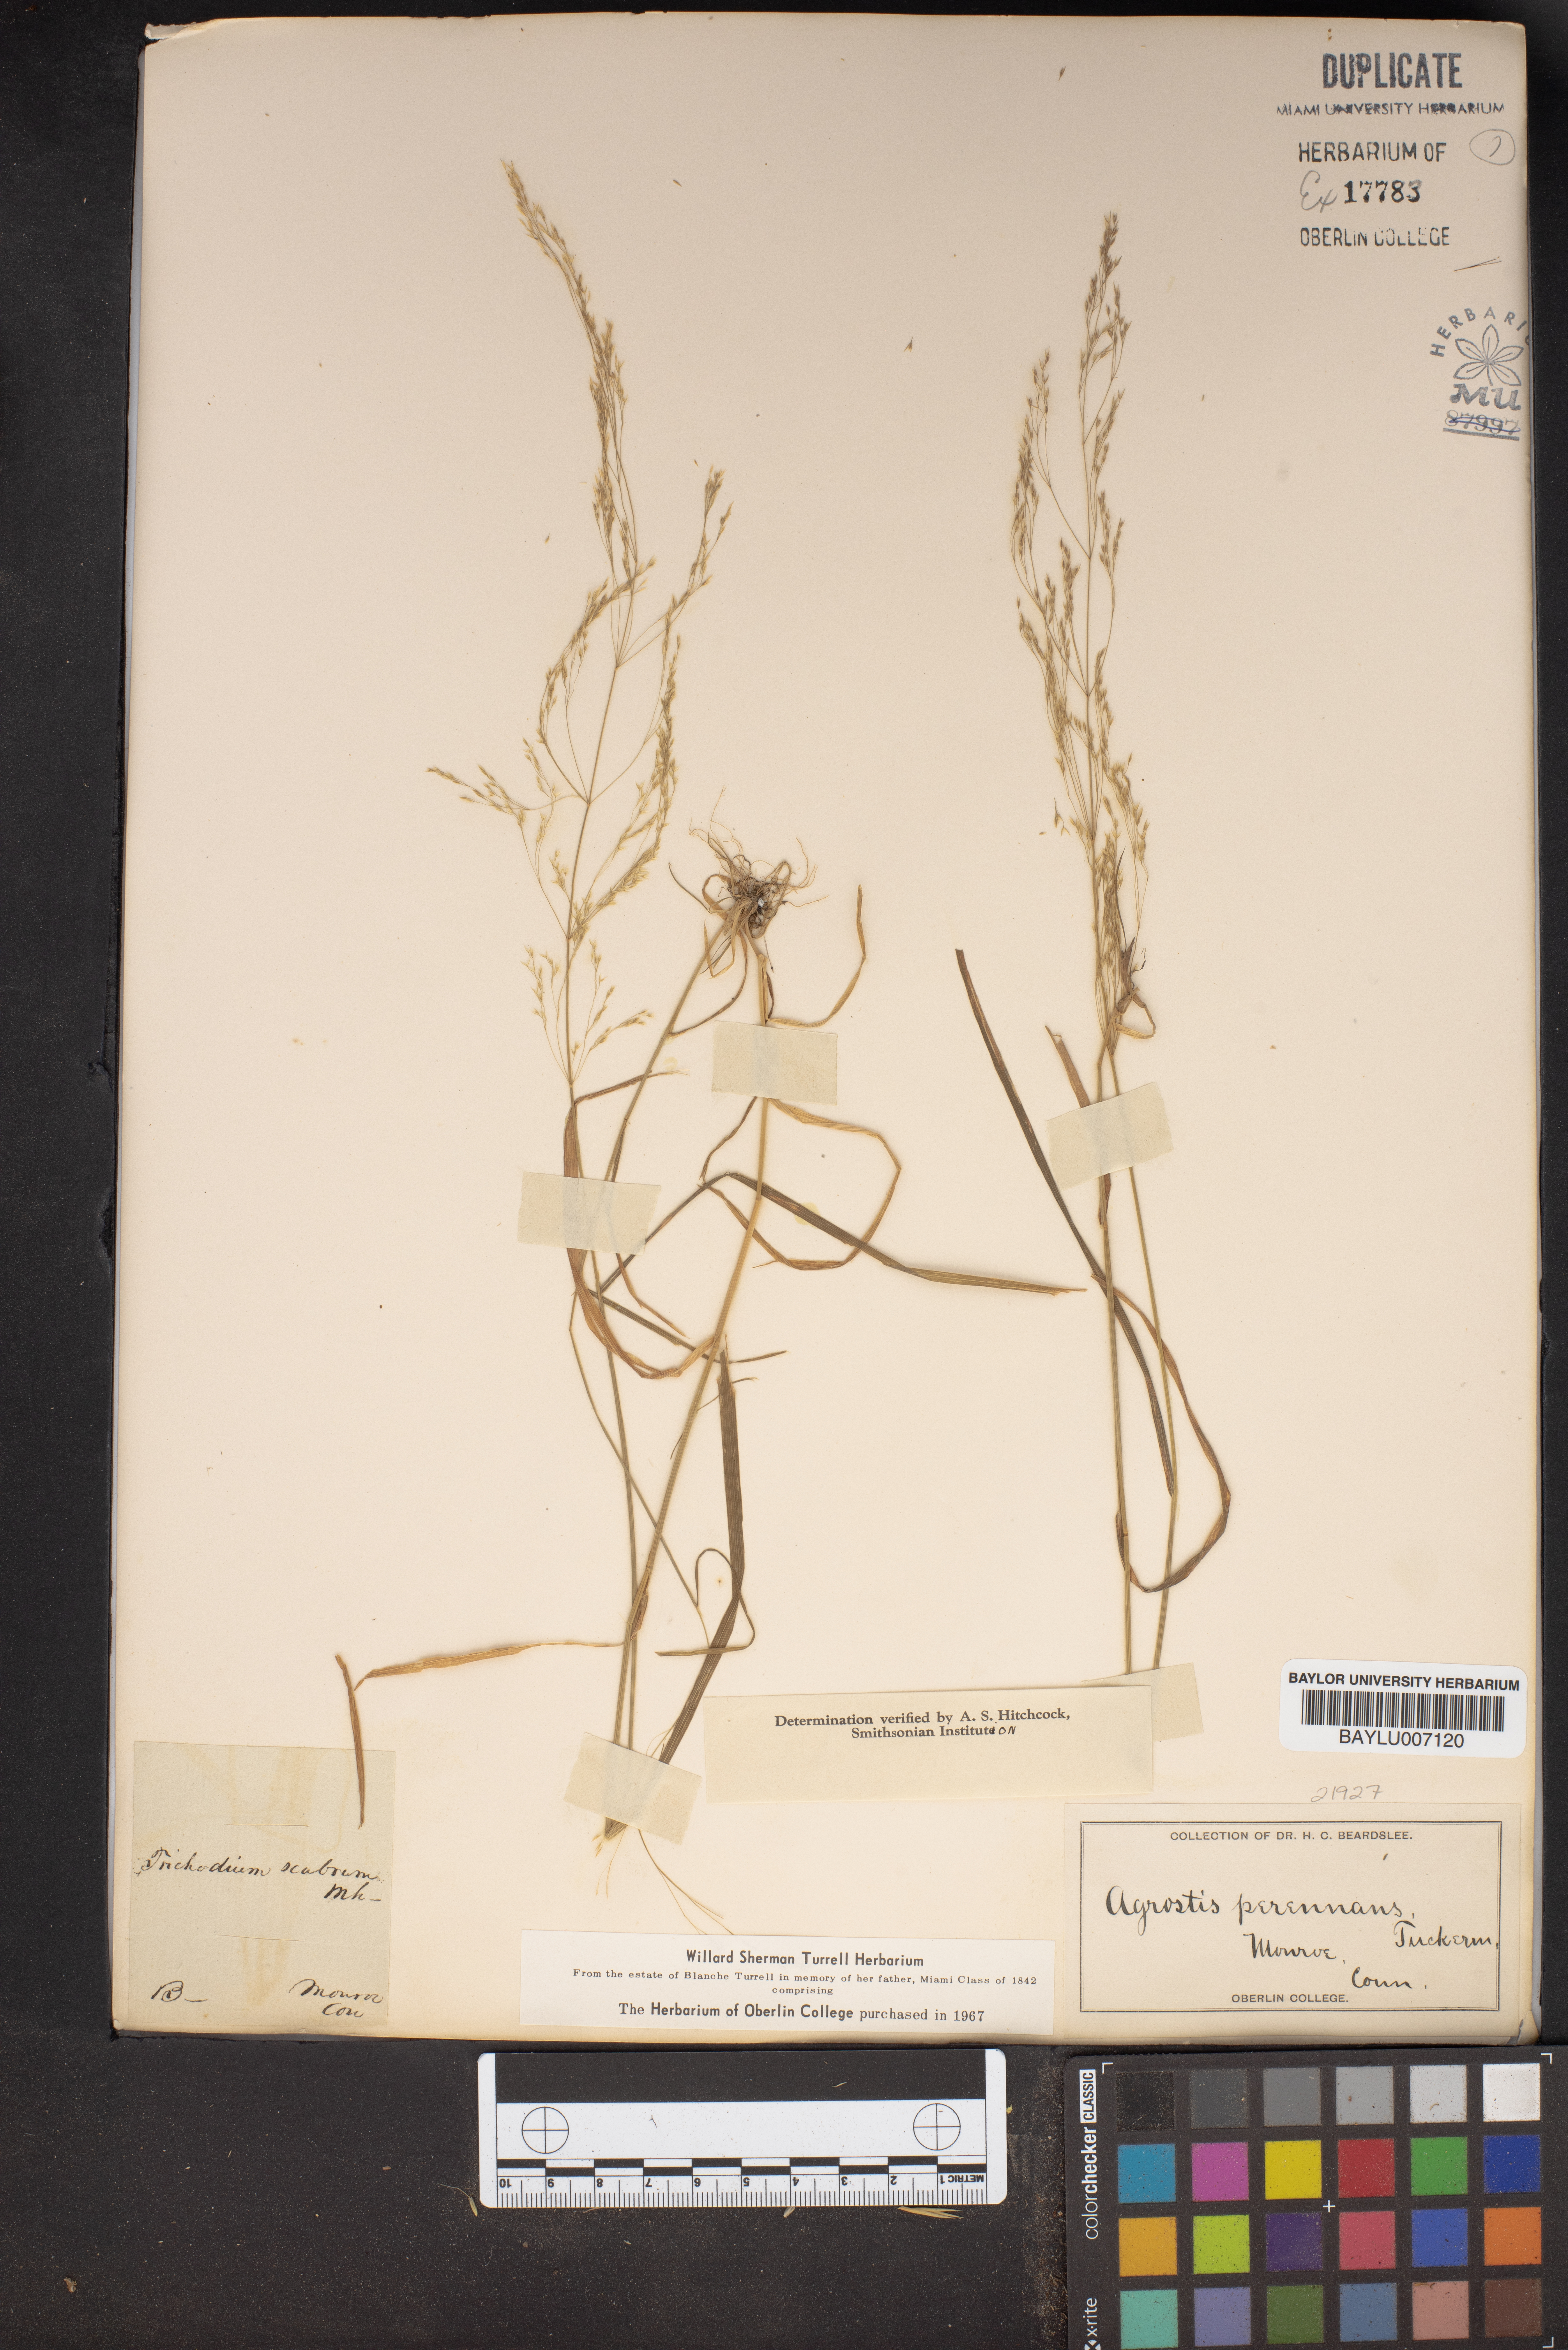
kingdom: Plantae
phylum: Tracheophyta
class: Liliopsida
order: Poales
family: Poaceae
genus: Agrostis
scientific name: Agrostis perennans
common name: Autumn bent
